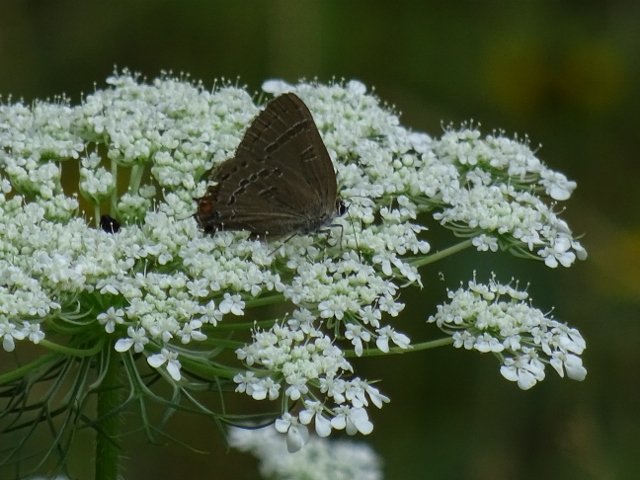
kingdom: Animalia
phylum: Arthropoda
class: Insecta
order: Lepidoptera
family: Lycaenidae
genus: Satyrium
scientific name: Satyrium calanus
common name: Banded Hairstreak
